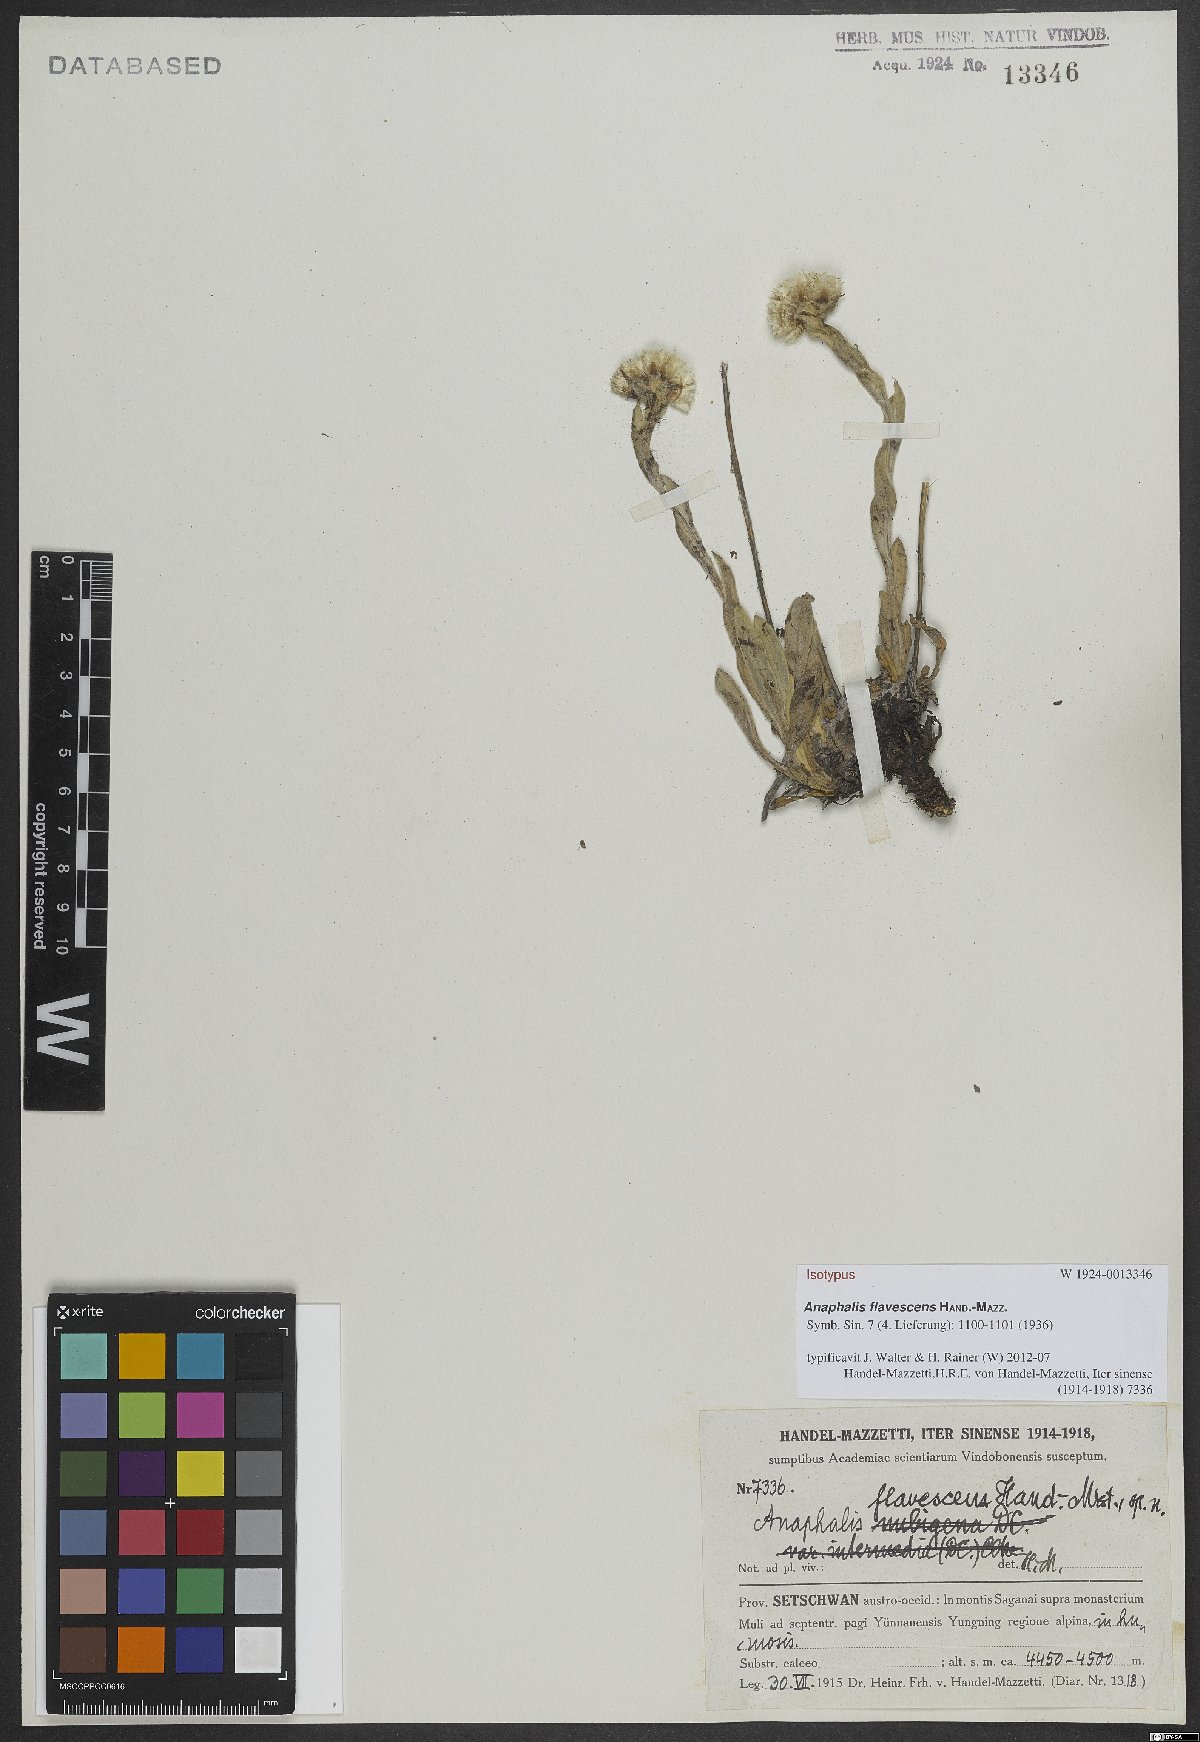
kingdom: Plantae
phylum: Tracheophyta
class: Magnoliopsida
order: Asterales
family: Asteraceae
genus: Anaphalis
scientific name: Anaphalis flavescens
